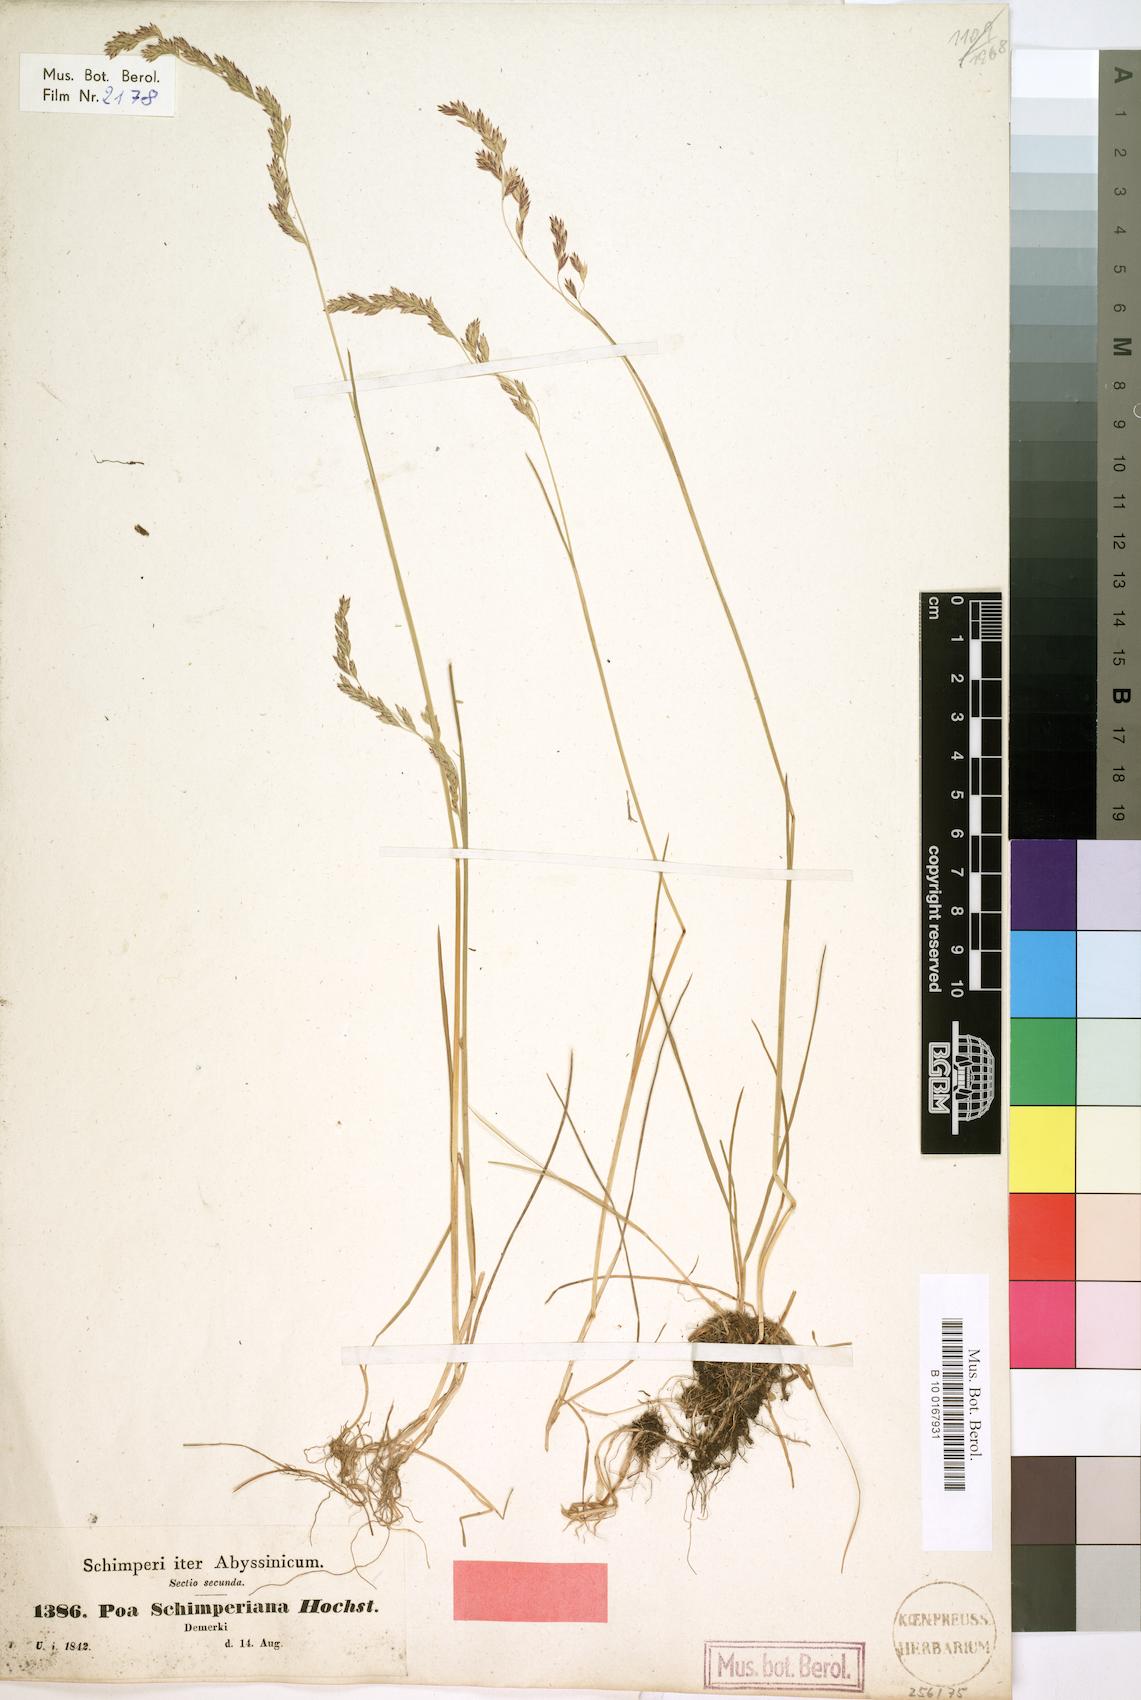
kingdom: Plantae
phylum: Tracheophyta
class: Liliopsida
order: Poales
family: Poaceae
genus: Poa
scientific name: Poa schimperiana
